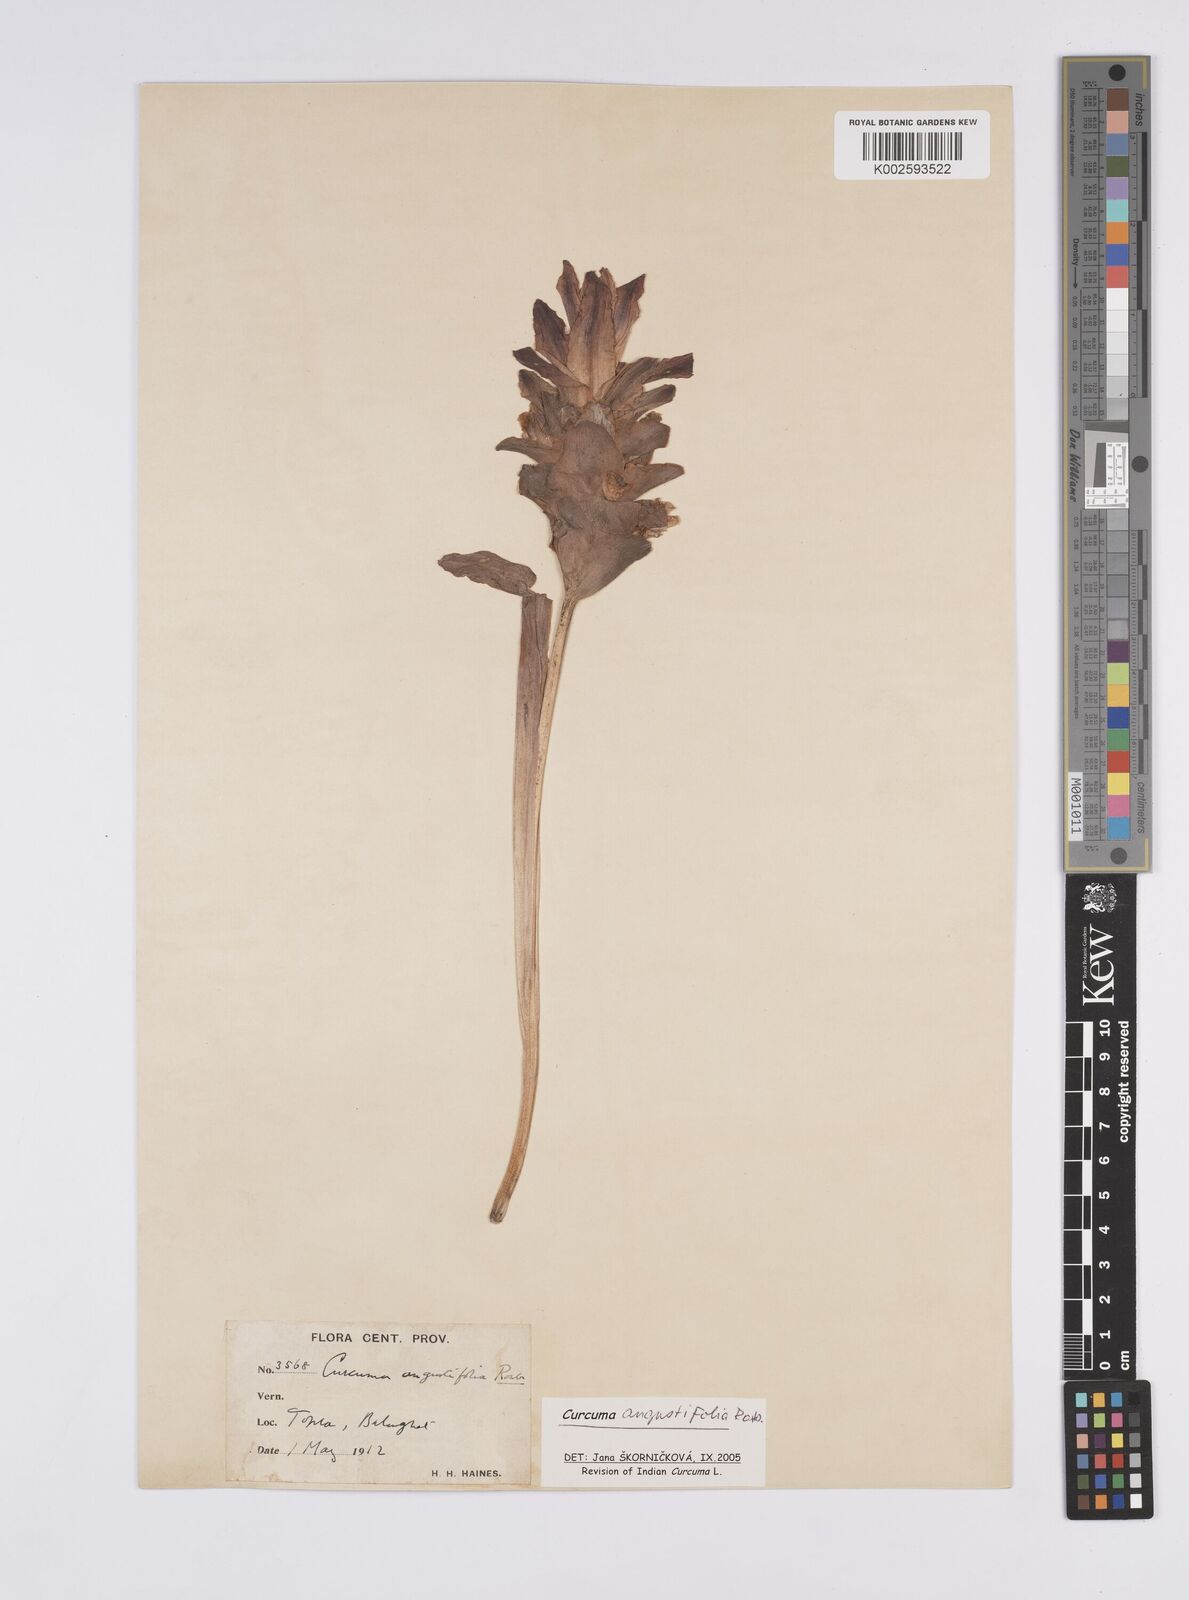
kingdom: Plantae
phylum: Tracheophyta
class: Liliopsida
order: Zingiberales
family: Zingiberaceae
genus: Curcuma
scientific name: Curcuma angustifolia
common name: East indian arrowroot
